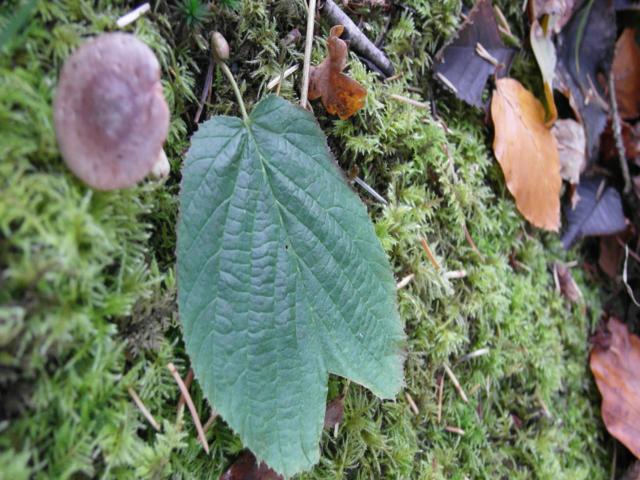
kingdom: Fungi
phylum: Basidiomycota
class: Agaricomycetes
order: Russulales
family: Russulaceae
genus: Lactarius
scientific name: Lactarius pyrogalus
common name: hassel-mælkehat
